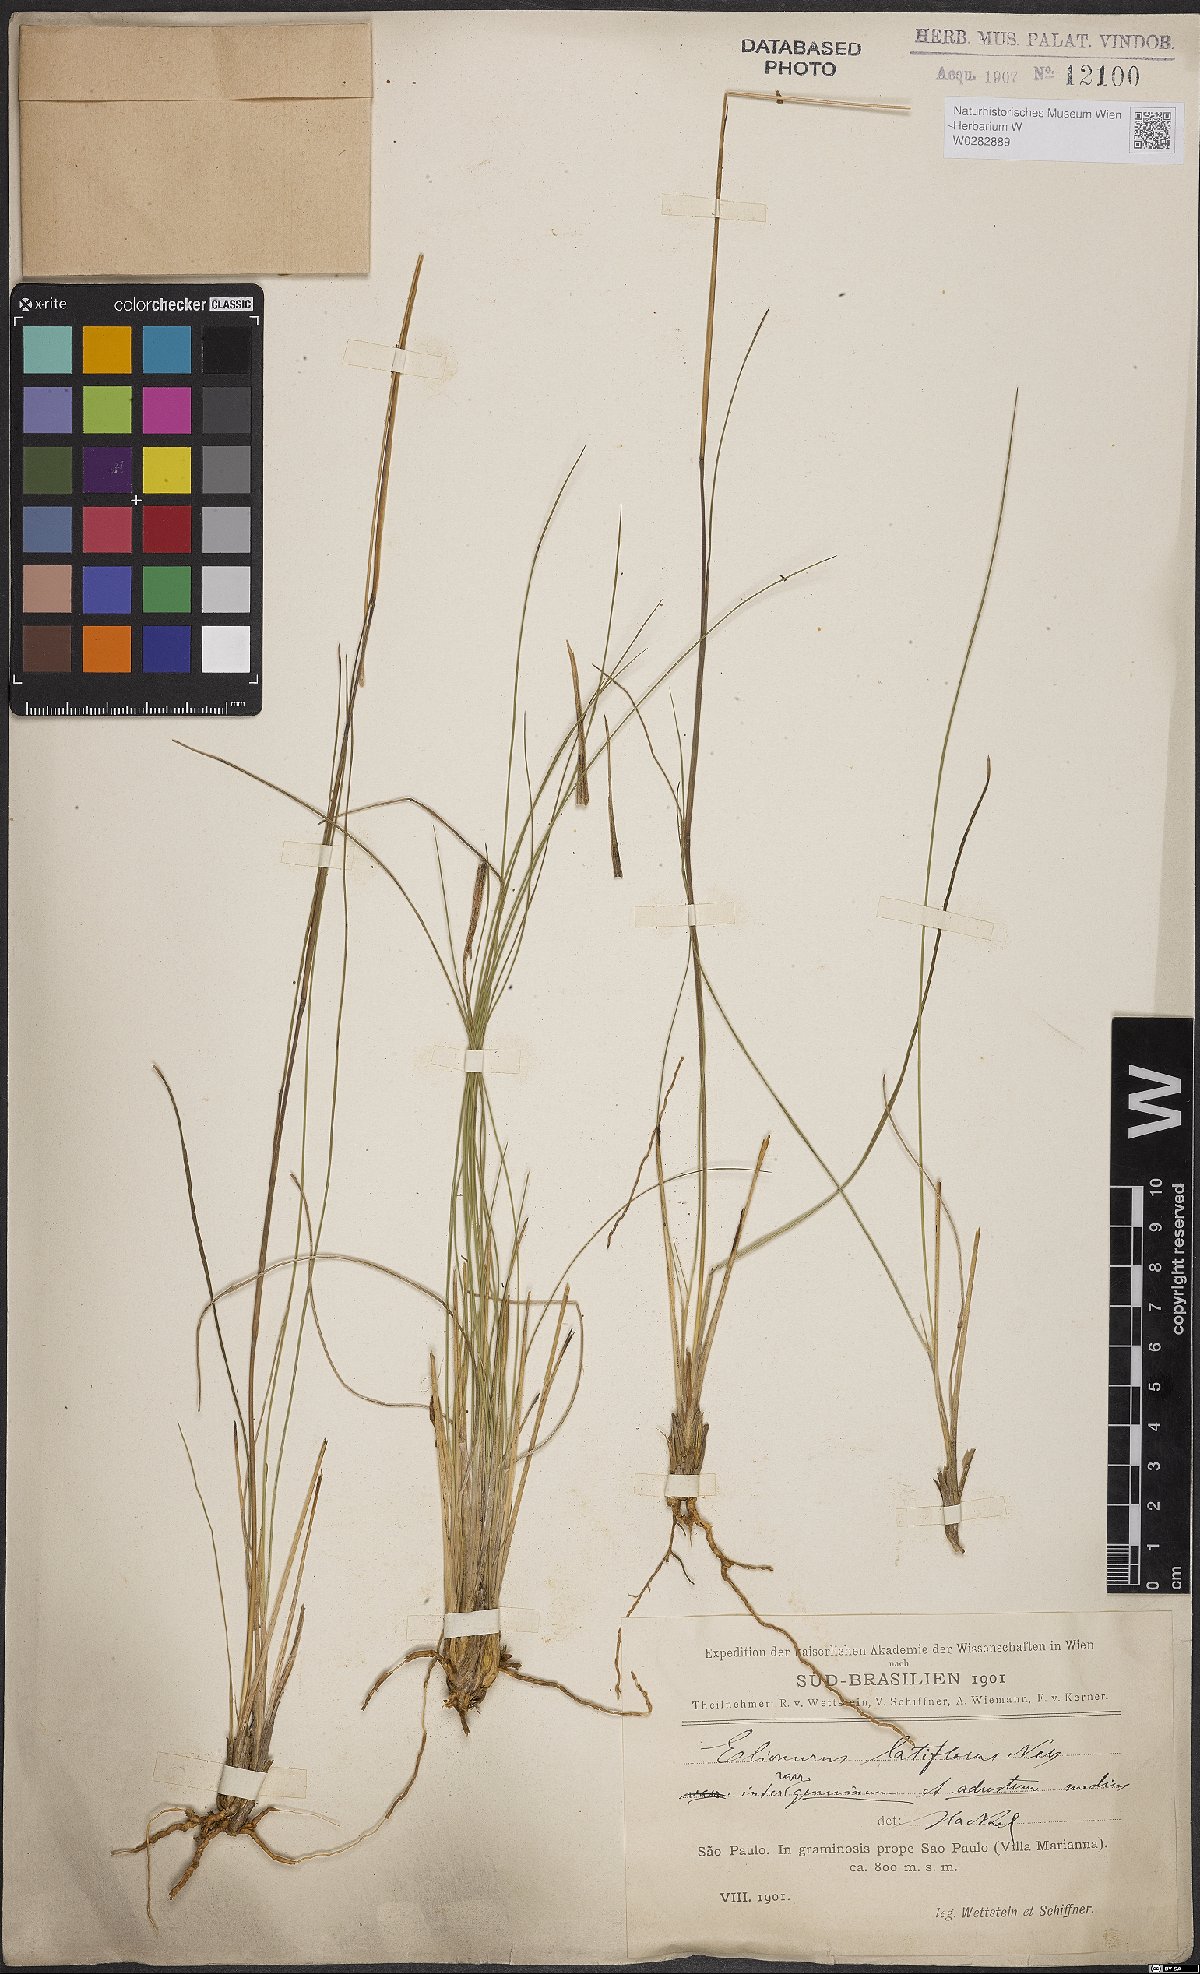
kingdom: Plantae
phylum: Tracheophyta
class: Liliopsida
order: Poales
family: Poaceae
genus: Elionurus
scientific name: Elionurus muticus
